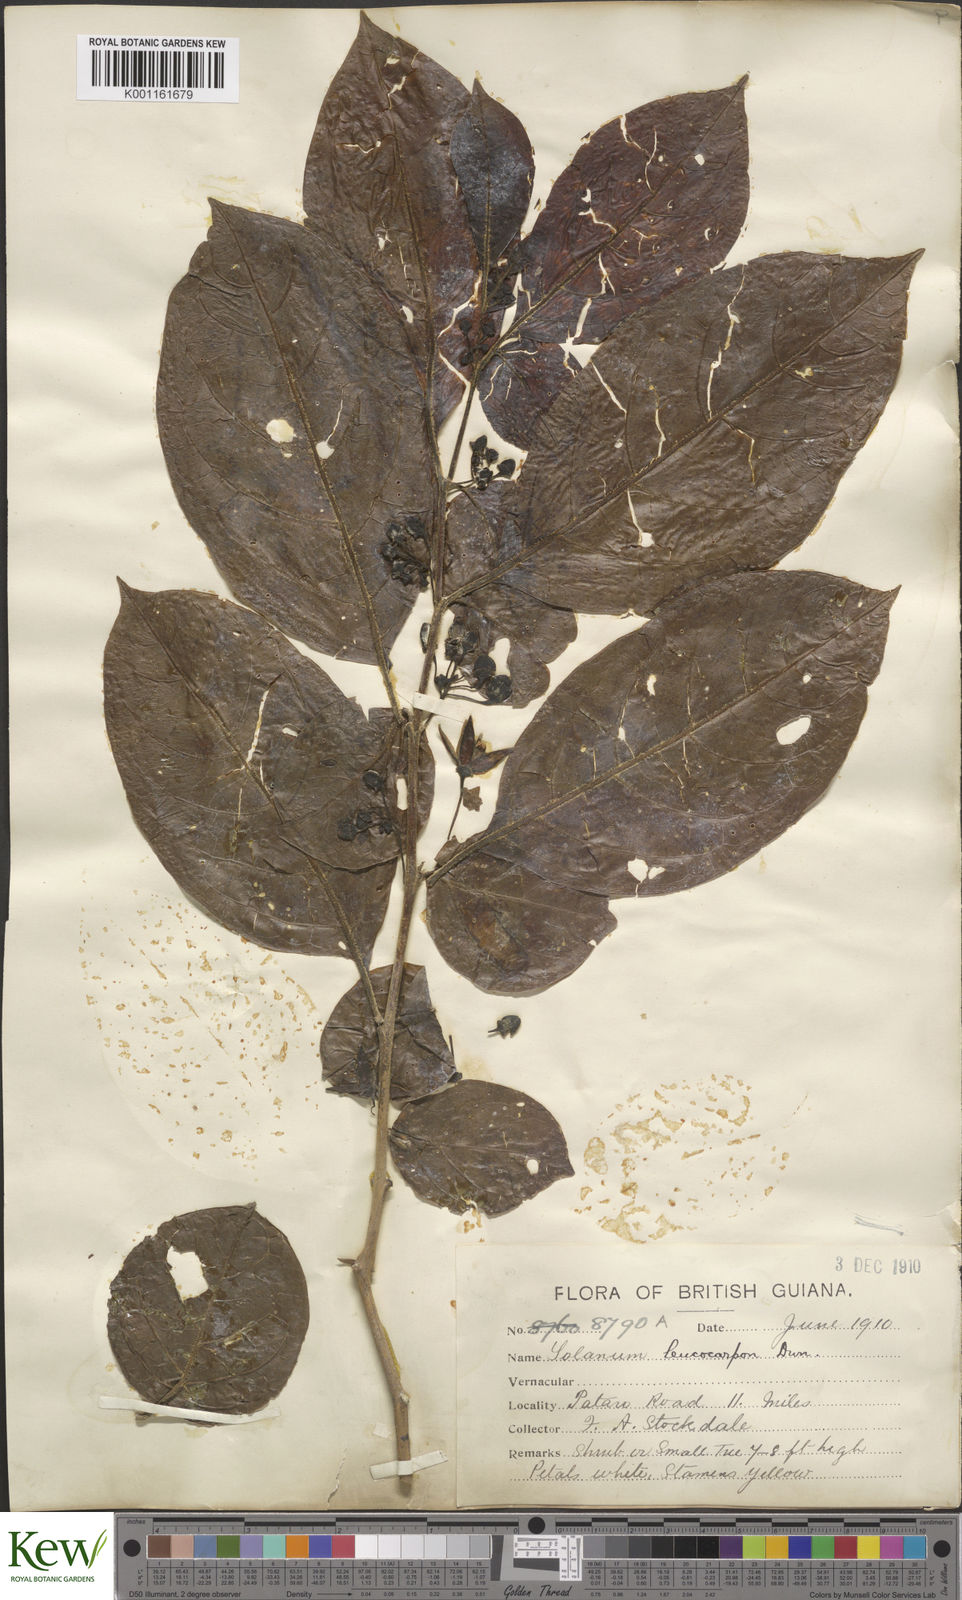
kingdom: Plantae
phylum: Tracheophyta
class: Magnoliopsida
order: Solanales
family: Solanaceae
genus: Solanum
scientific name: Solanum leucocarpon
